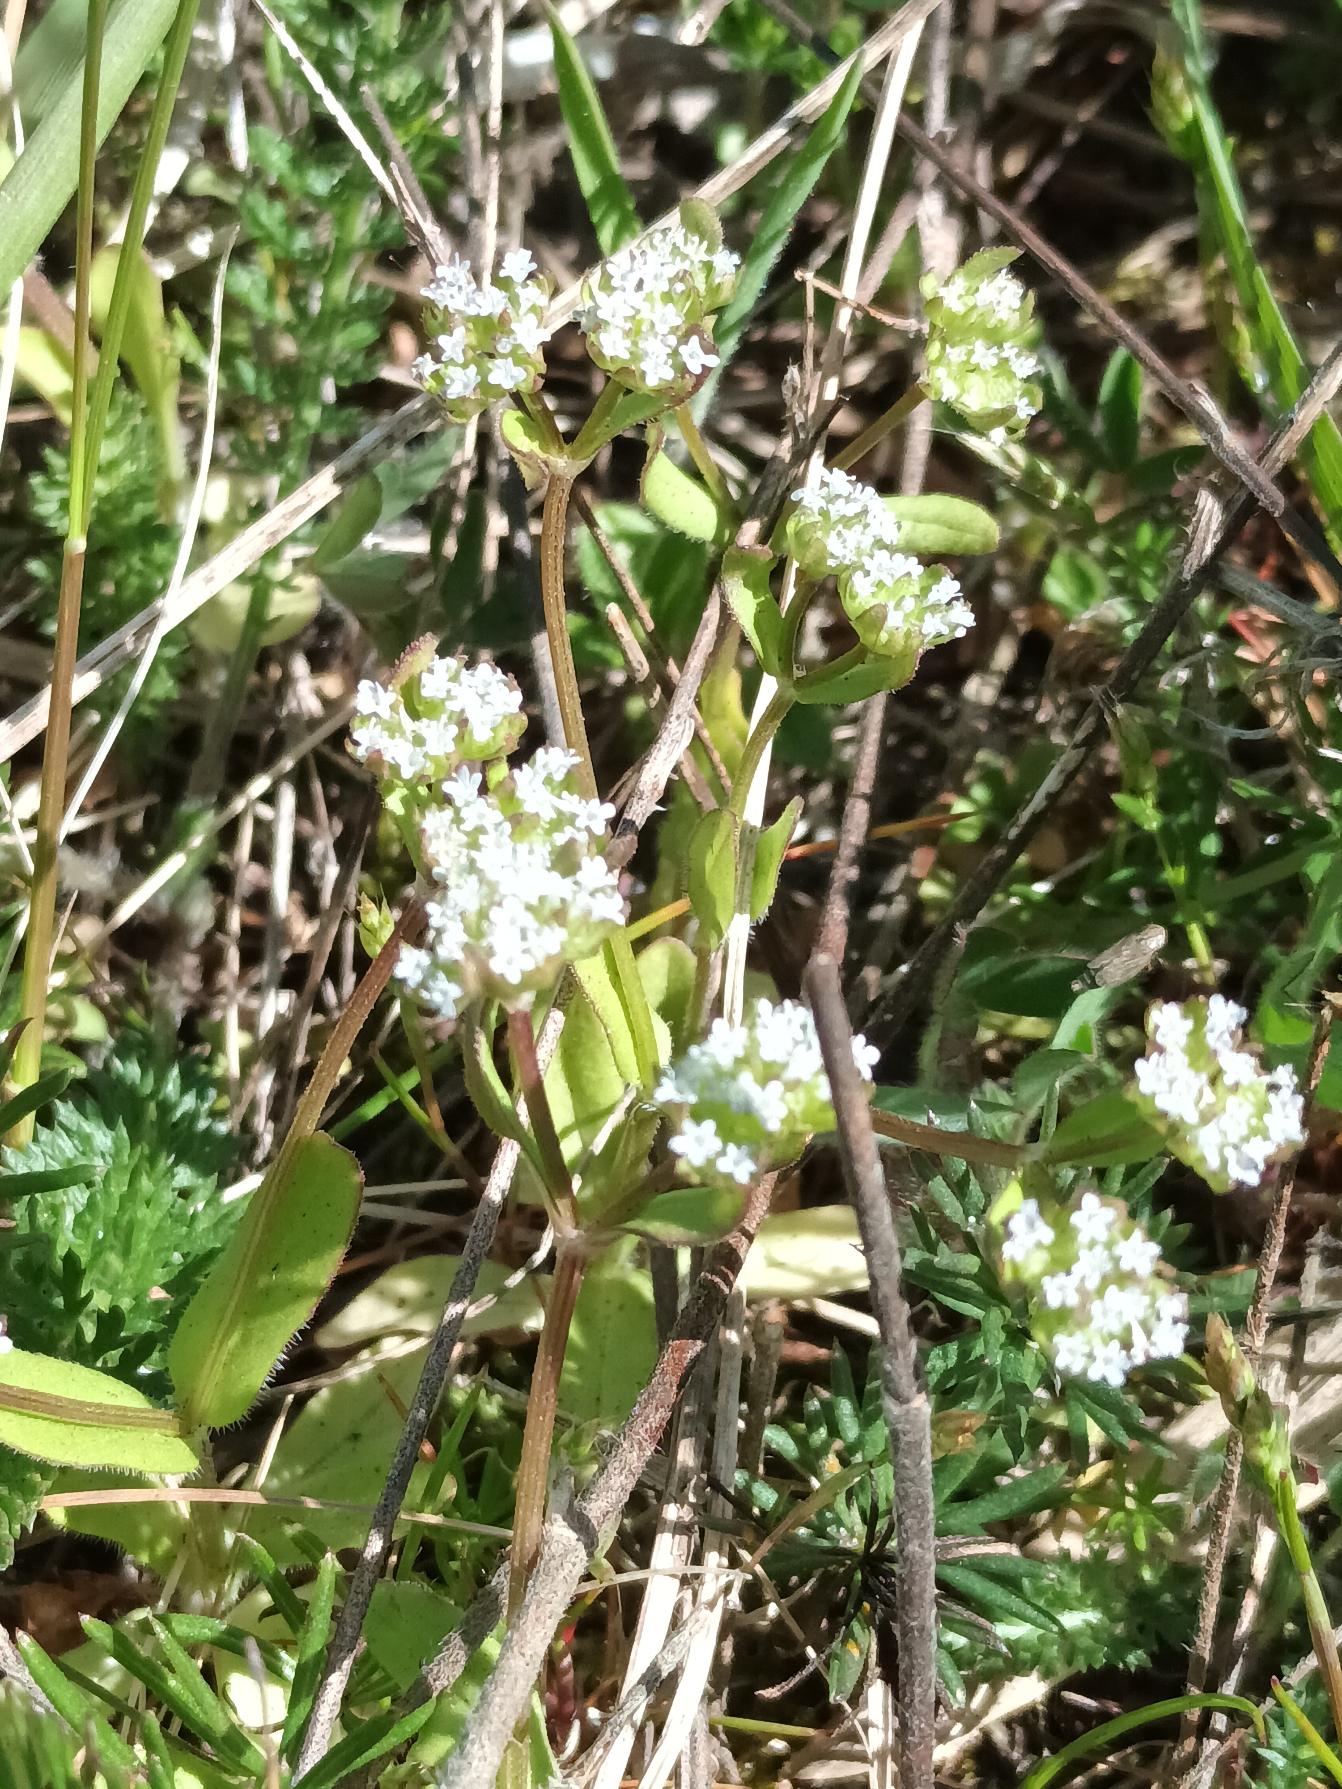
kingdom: Plantae
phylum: Tracheophyta
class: Magnoliopsida
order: Dipsacales
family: Caprifoliaceae
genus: Valerianella
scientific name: Valerianella locusta
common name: Tandfri vårsalat
